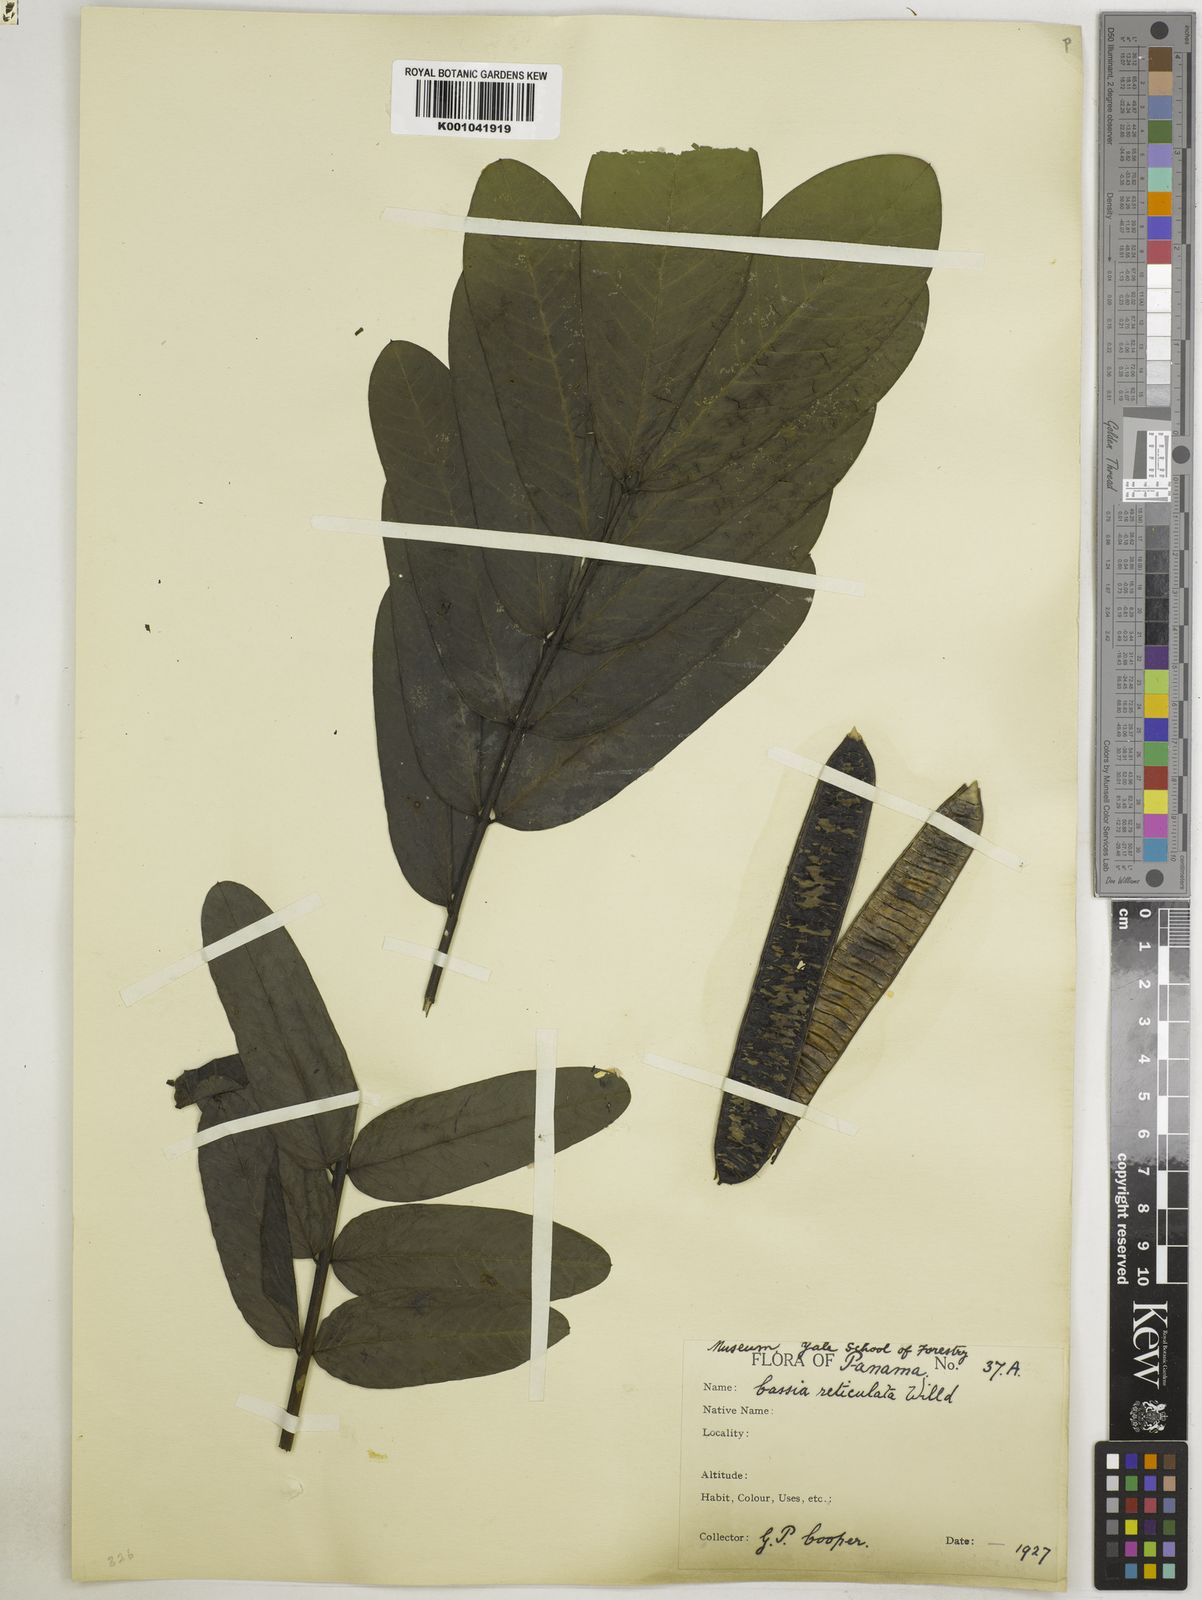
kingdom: Plantae
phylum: Tracheophyta
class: Magnoliopsida
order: Fabales
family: Fabaceae
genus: Senna
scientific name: Senna reticulata
